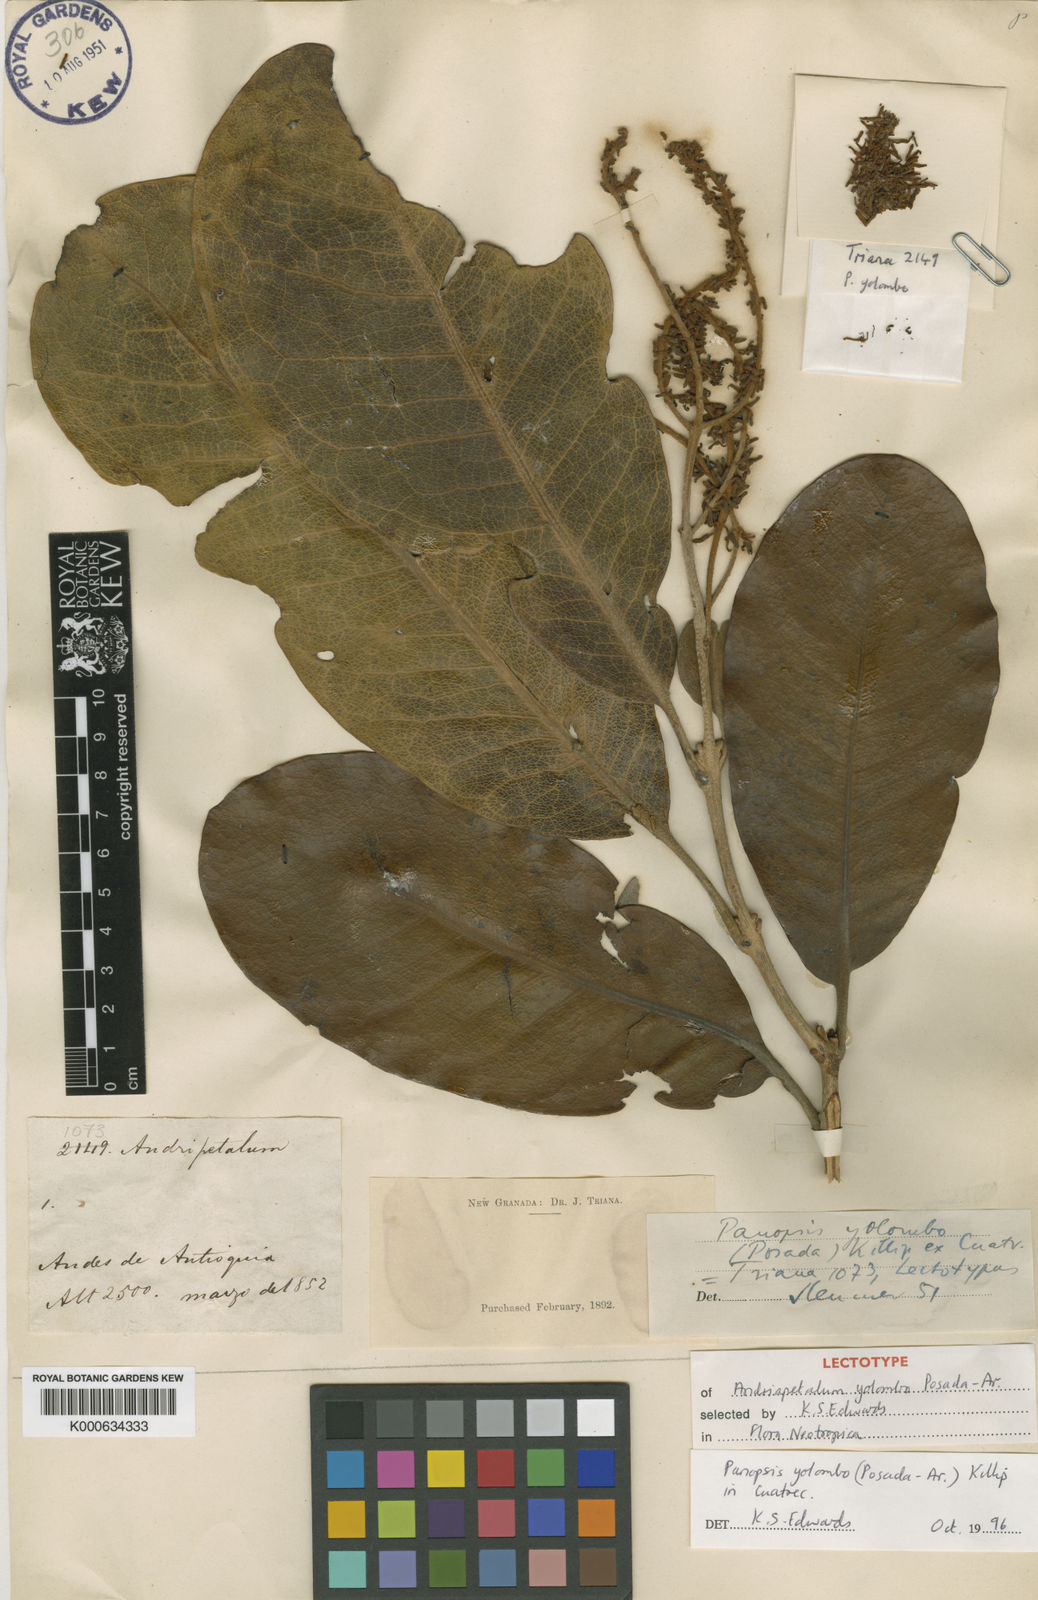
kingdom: Plantae
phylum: Tracheophyta
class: Magnoliopsida
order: Proteales
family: Proteaceae
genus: Panopsis
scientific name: Panopsis yolombo
